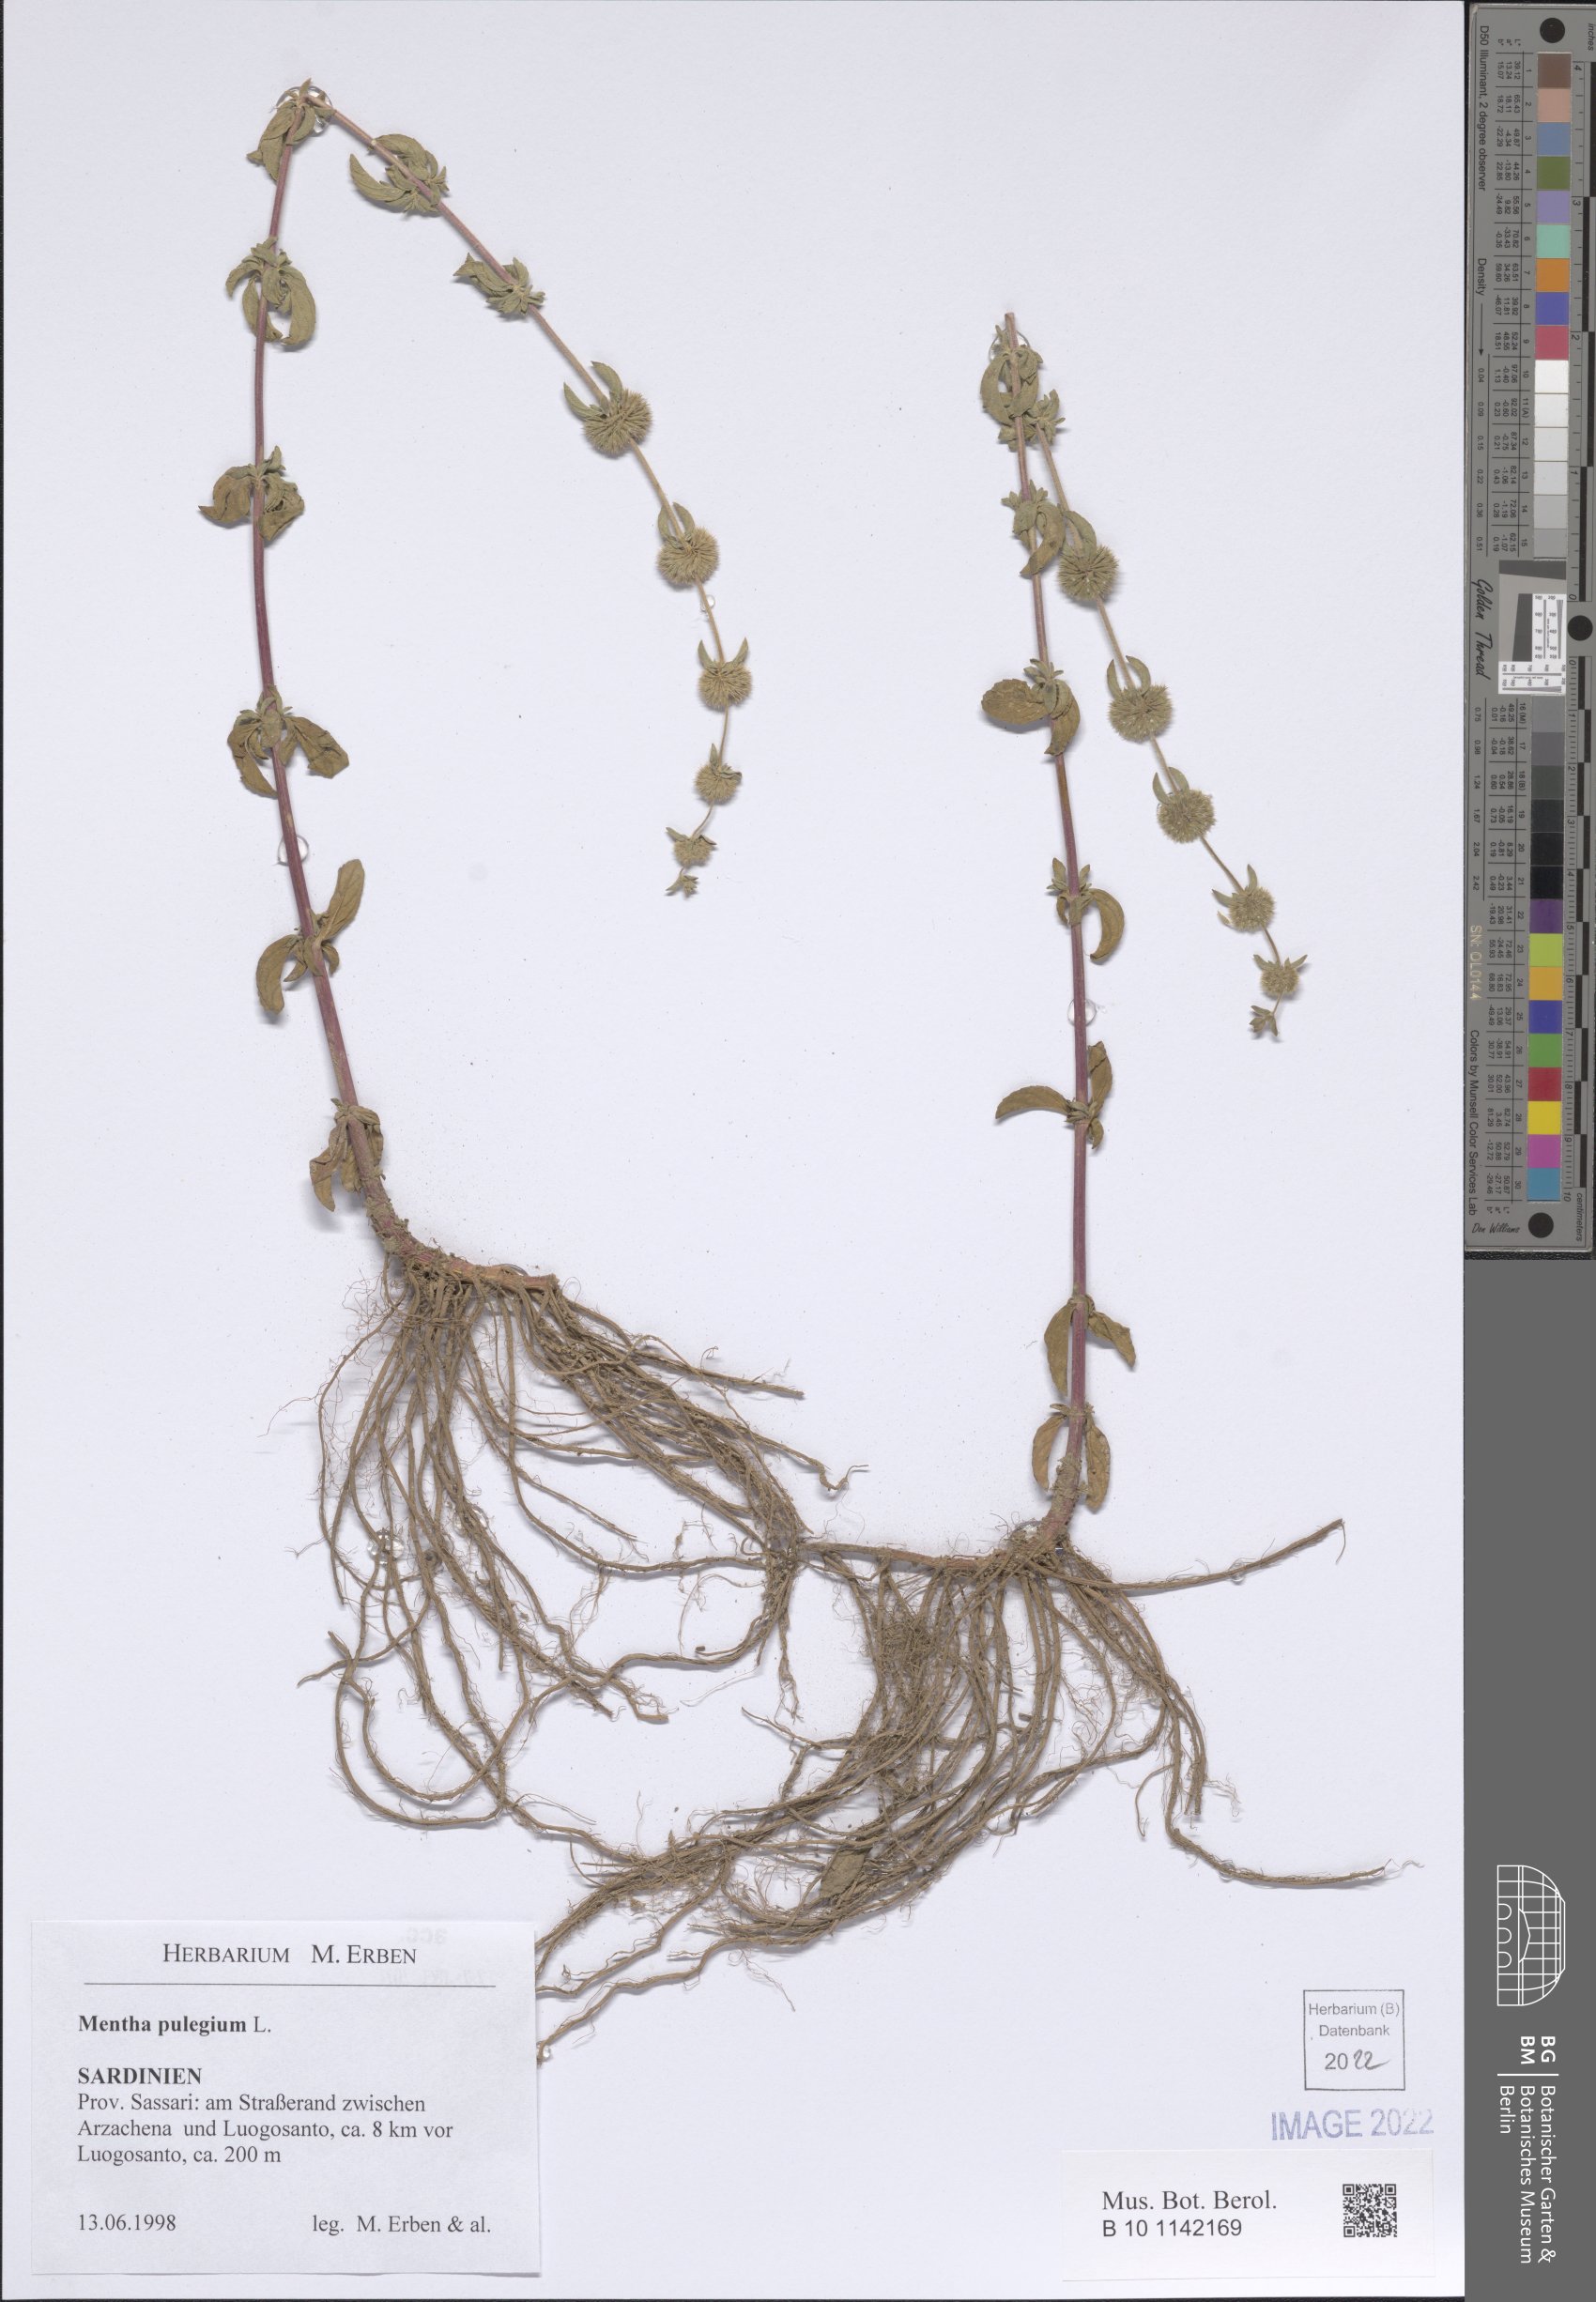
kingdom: Plantae
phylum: Tracheophyta
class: Magnoliopsida
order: Lamiales
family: Lamiaceae
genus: Mentha
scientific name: Mentha pulegium
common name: Pennyroyal
